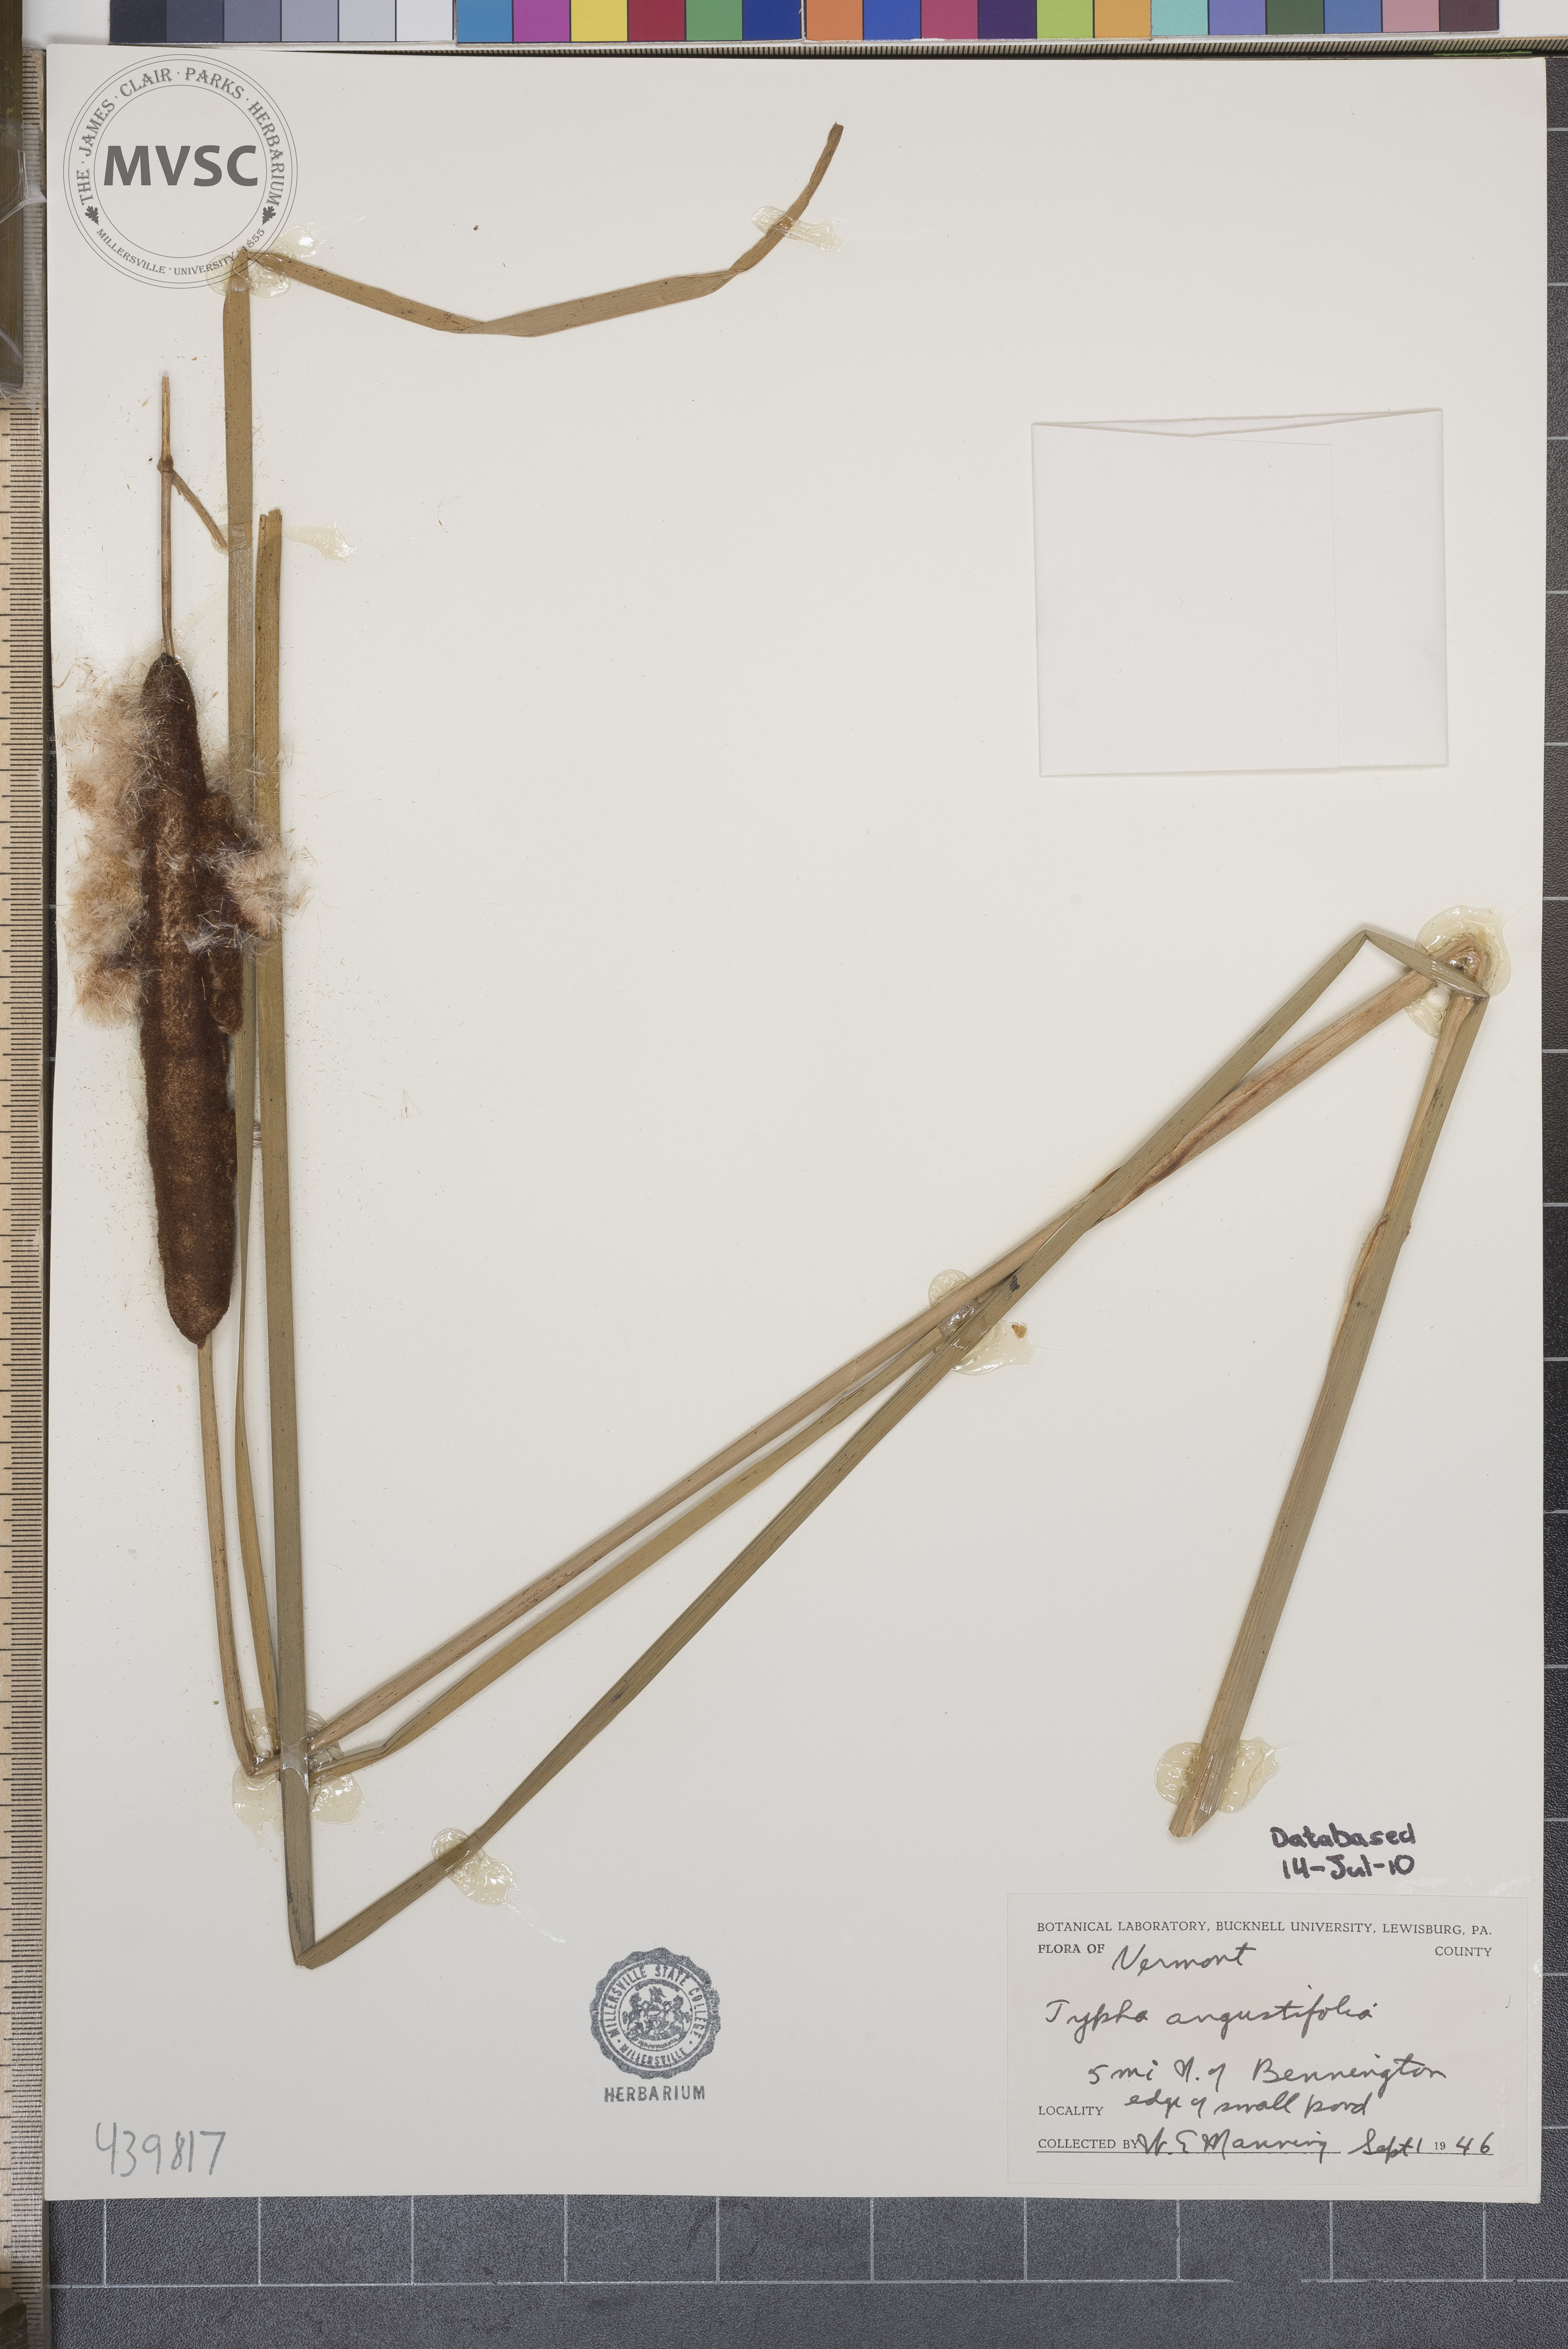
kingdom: Plantae
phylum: Tracheophyta
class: Liliopsida
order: Poales
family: Typhaceae
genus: Typha
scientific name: Typha angustifolia
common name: Lesser bulrush
